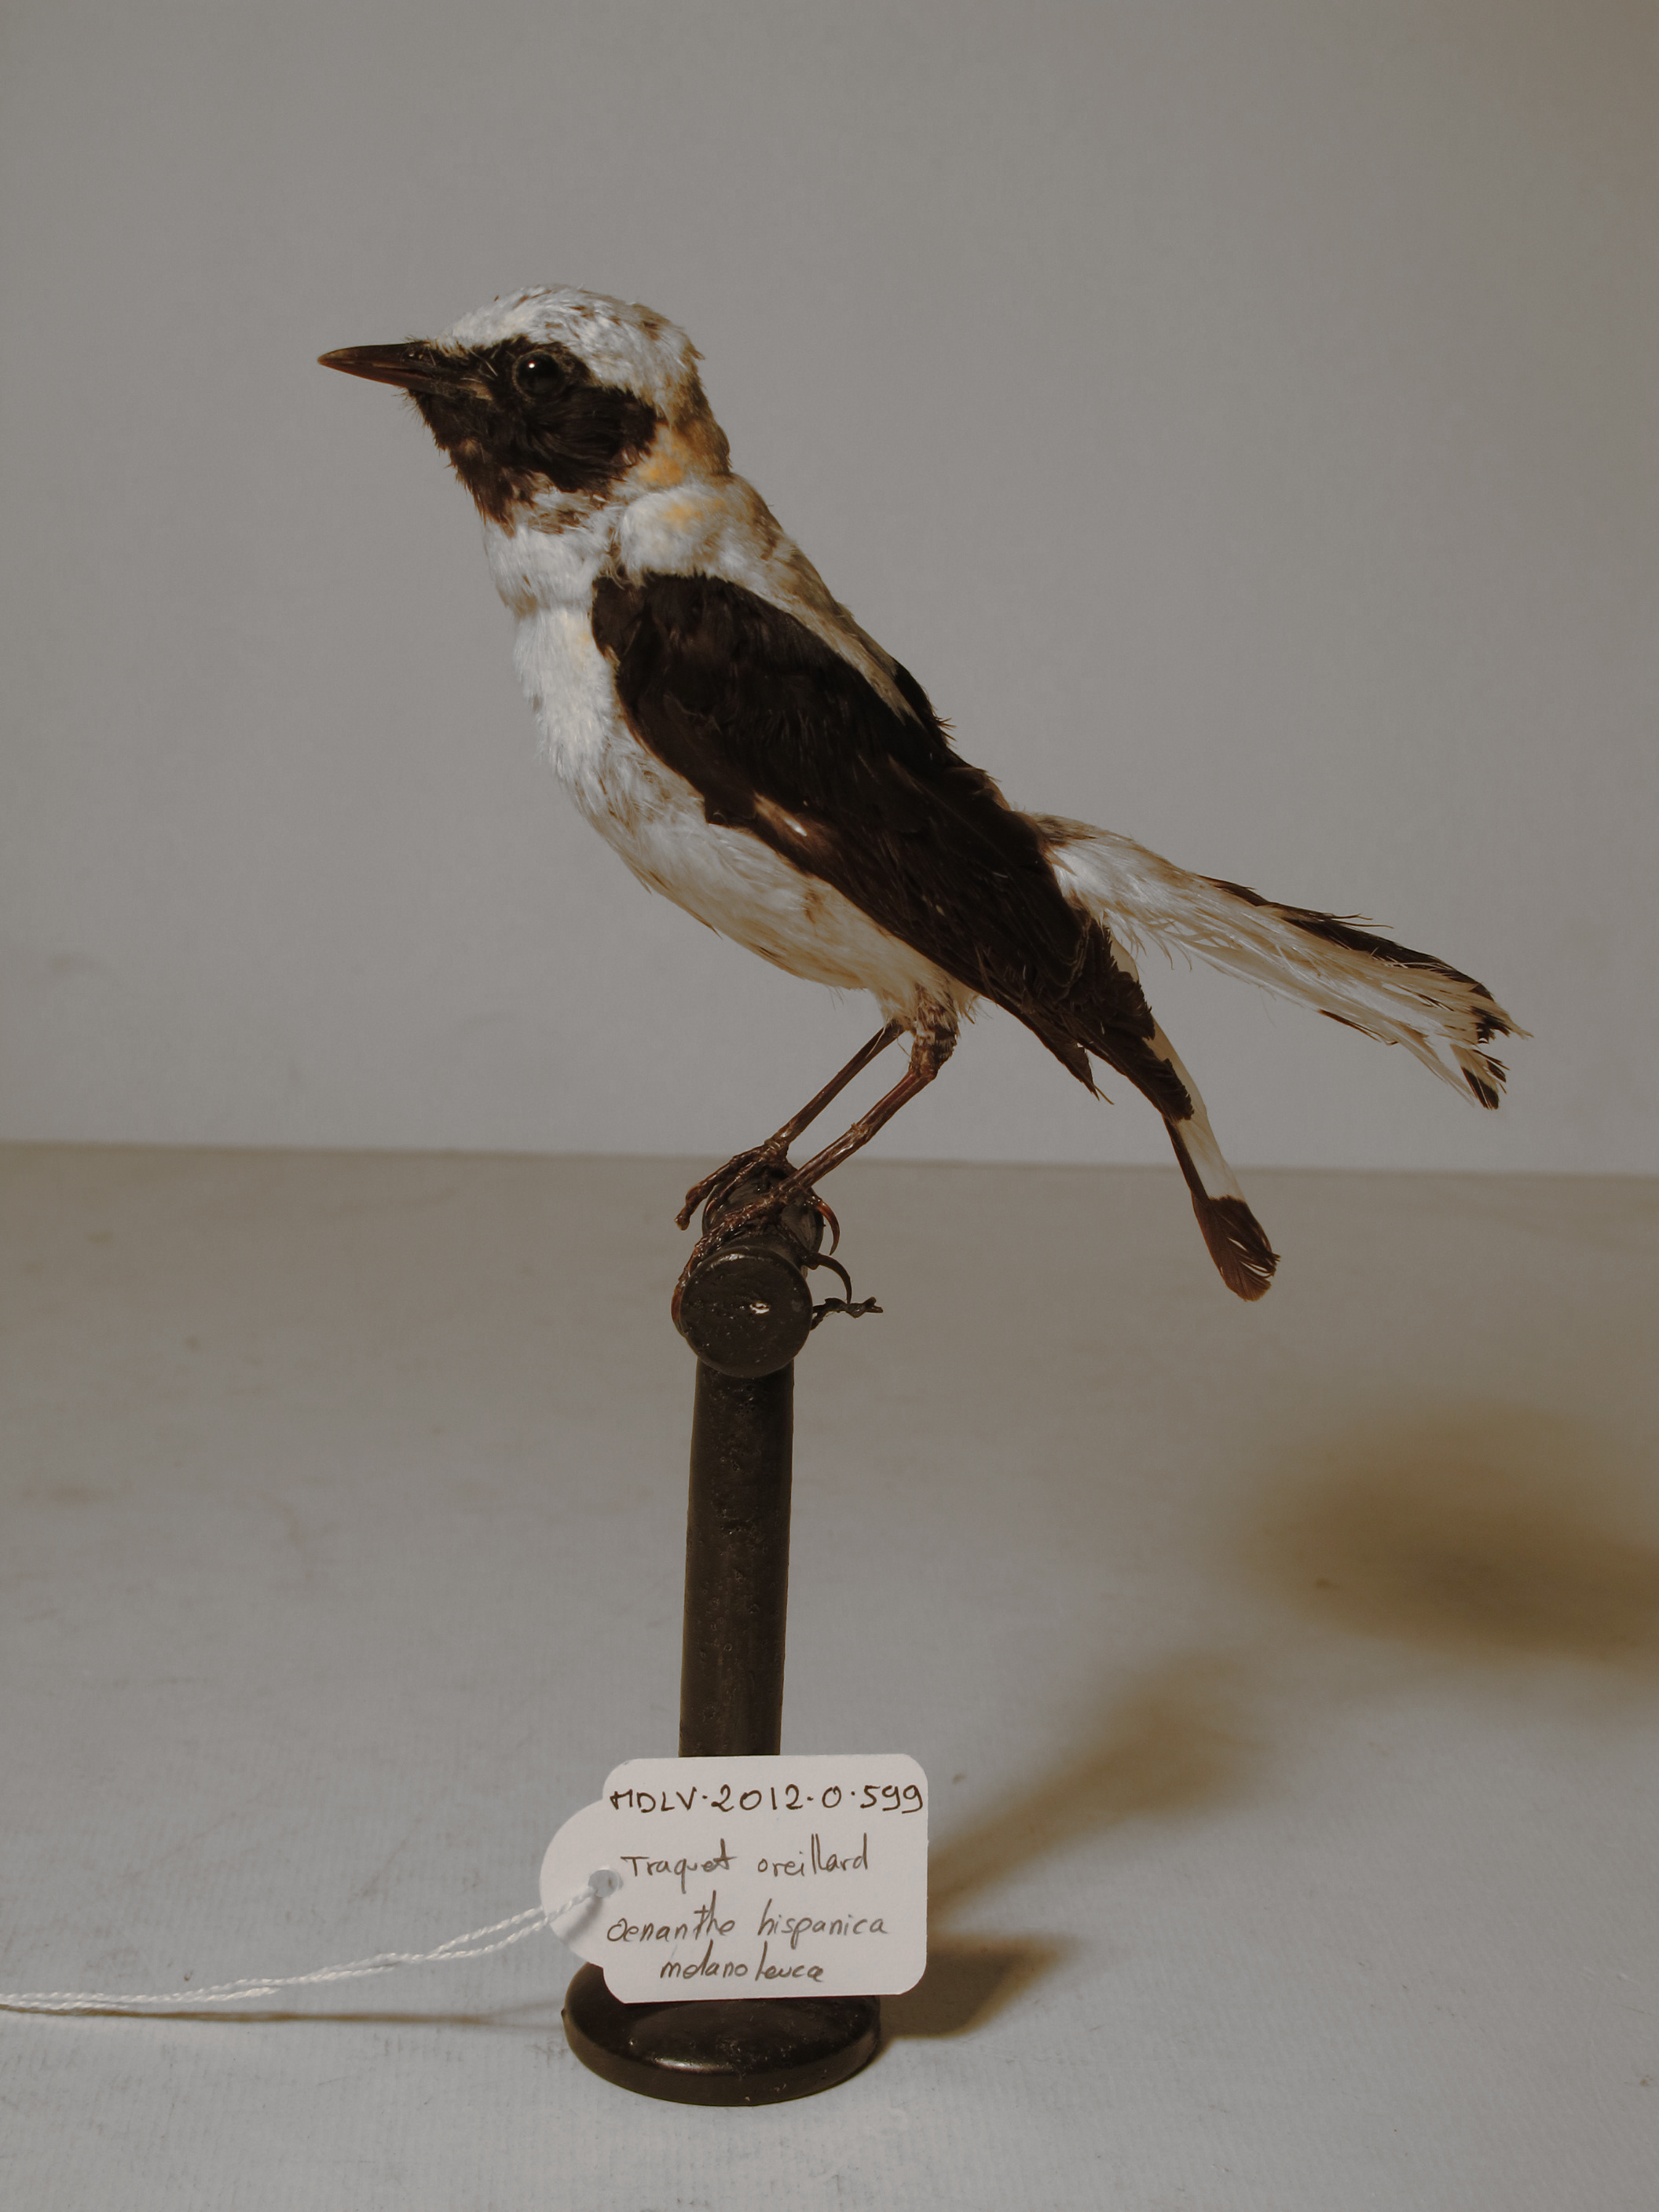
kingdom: Animalia
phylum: Chordata
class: Aves
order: Passeriformes
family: Muscicapidae
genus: Oenanthe
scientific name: Oenanthe hispanica
